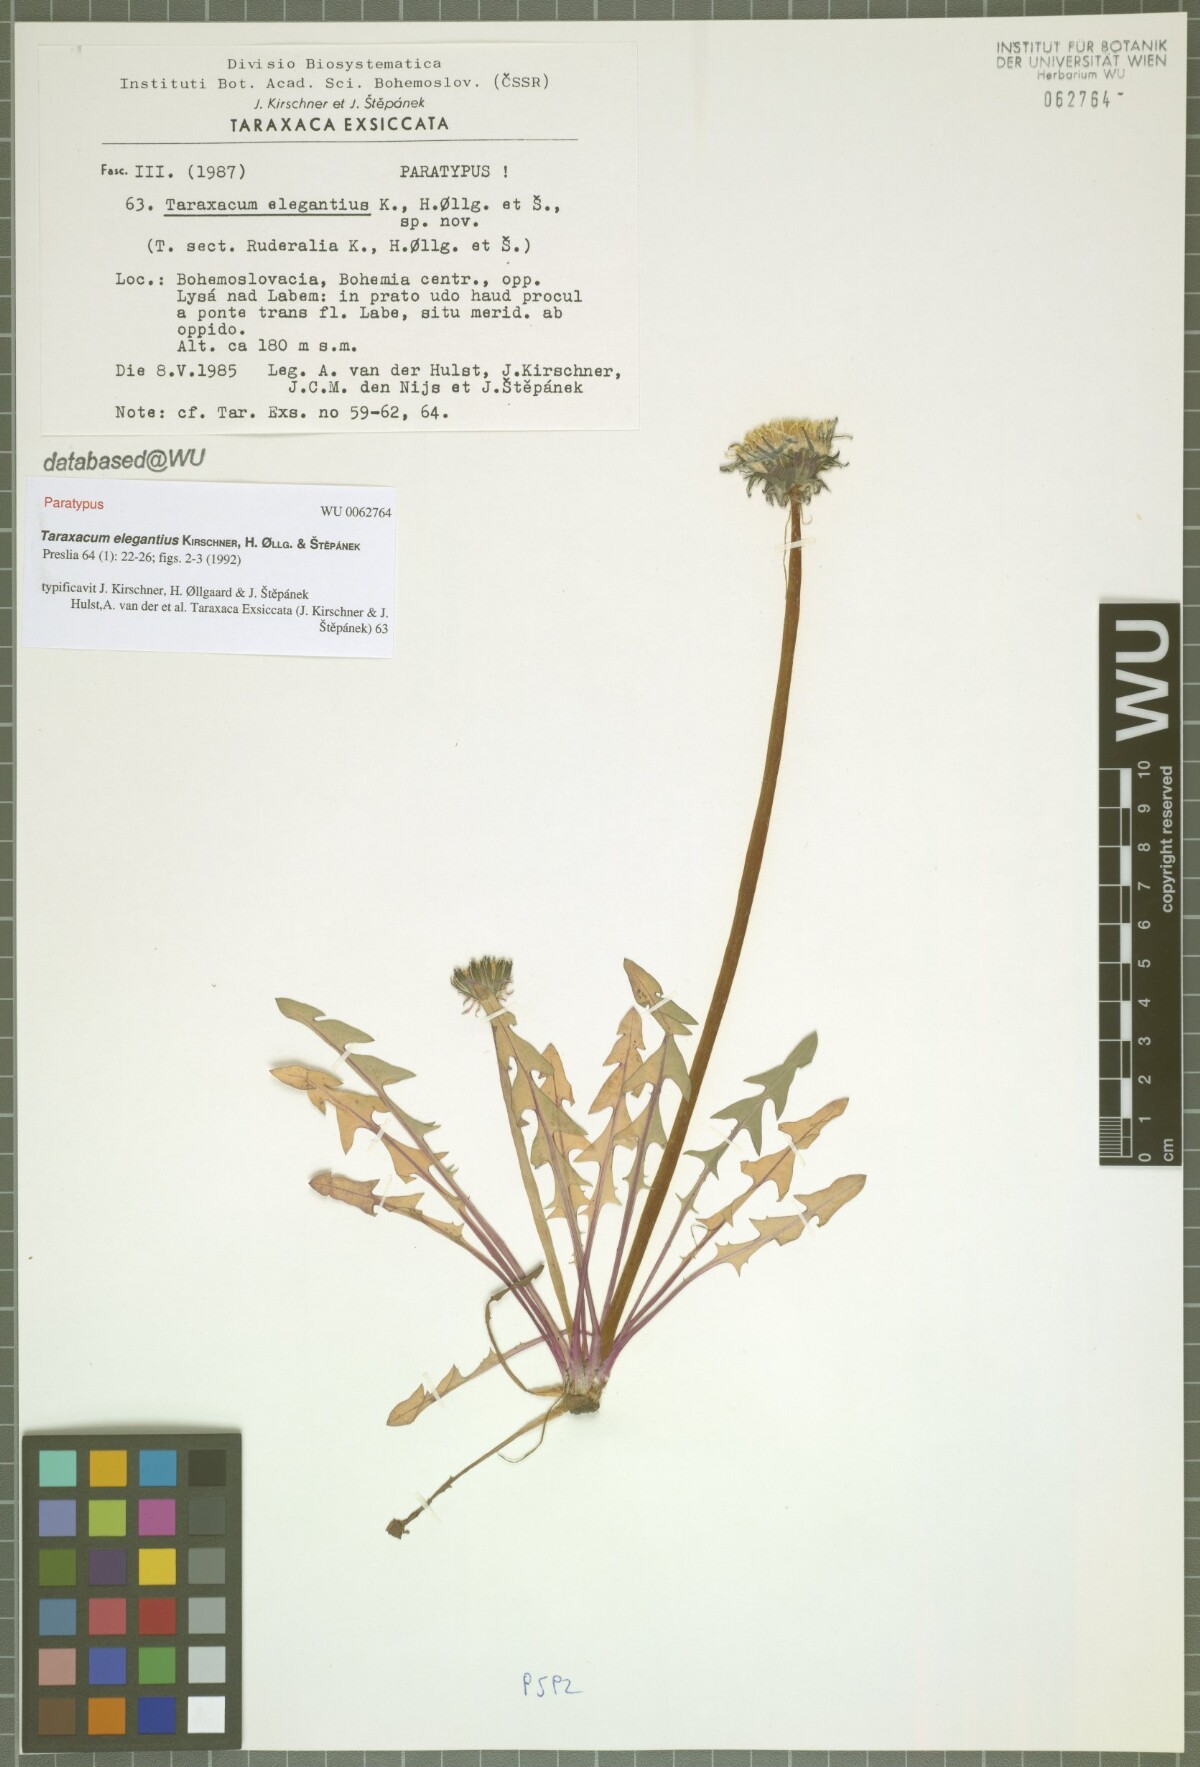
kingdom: Plantae
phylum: Tracheophyta
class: Magnoliopsida
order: Asterales
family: Asteraceae
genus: Taraxacum
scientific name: Taraxacum elegantius
